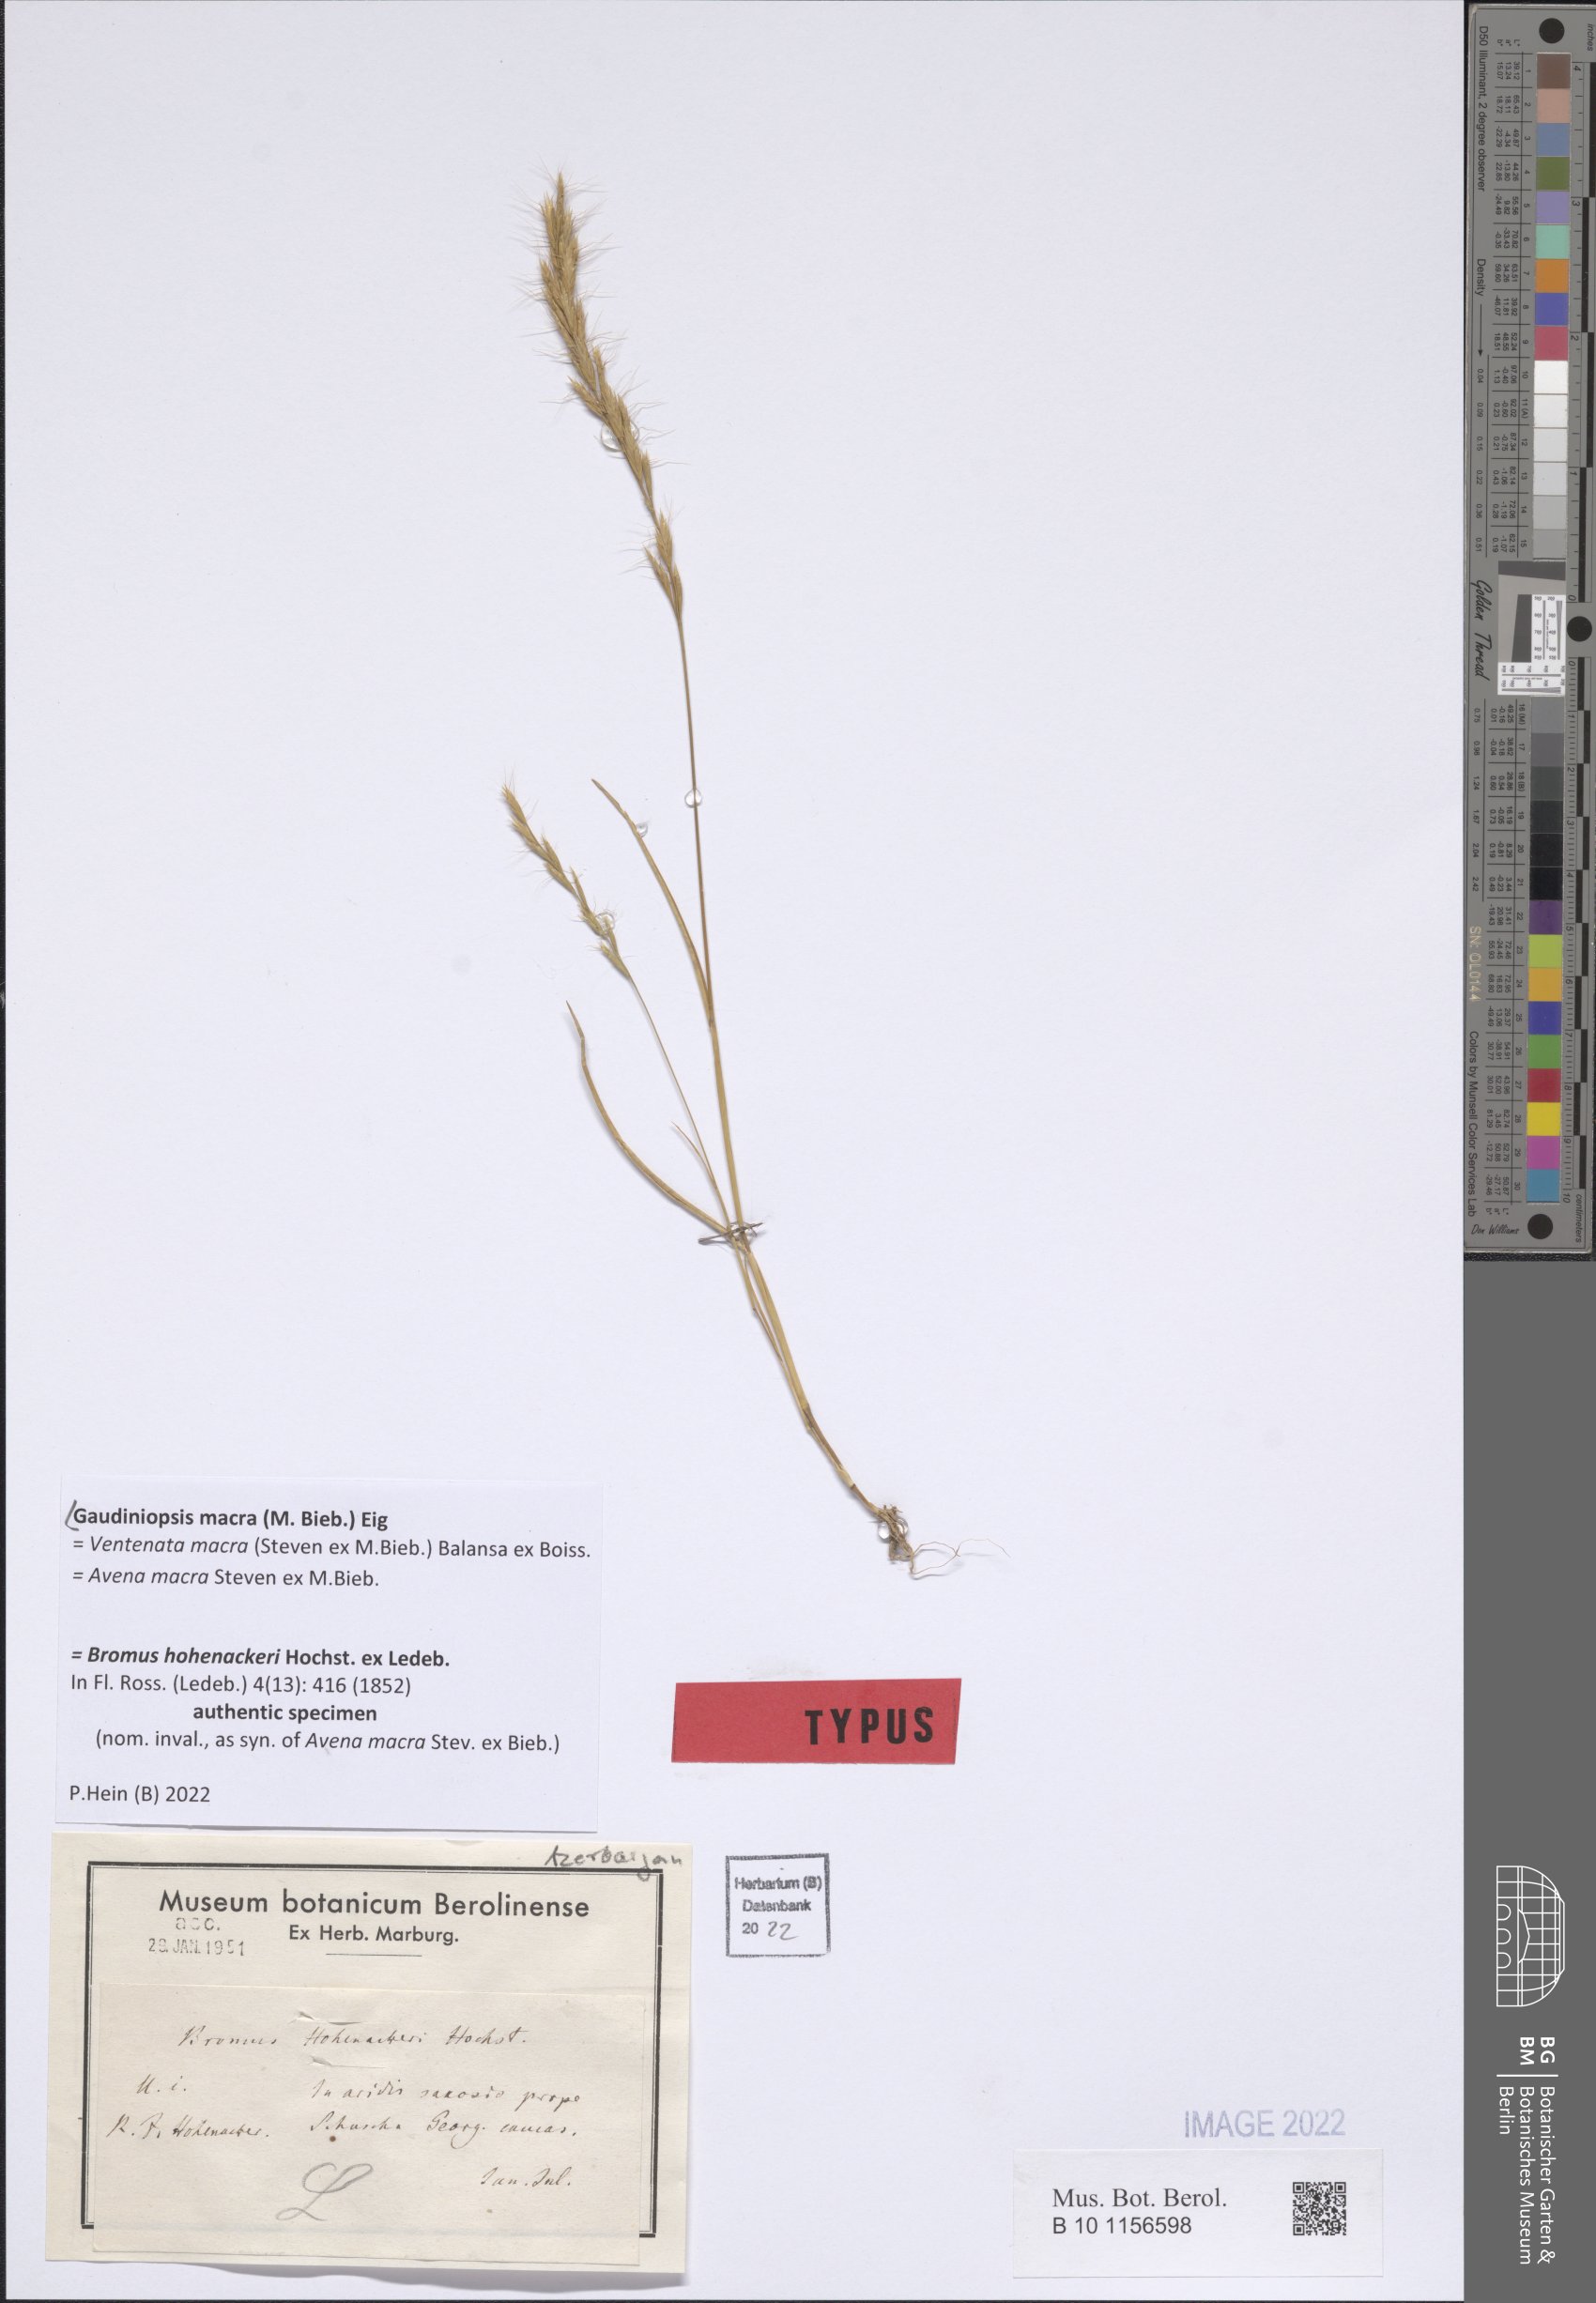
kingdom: Plantae
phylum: Tracheophyta
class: Liliopsida
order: Poales
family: Poaceae
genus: Ventenata
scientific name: Ventenata macra
